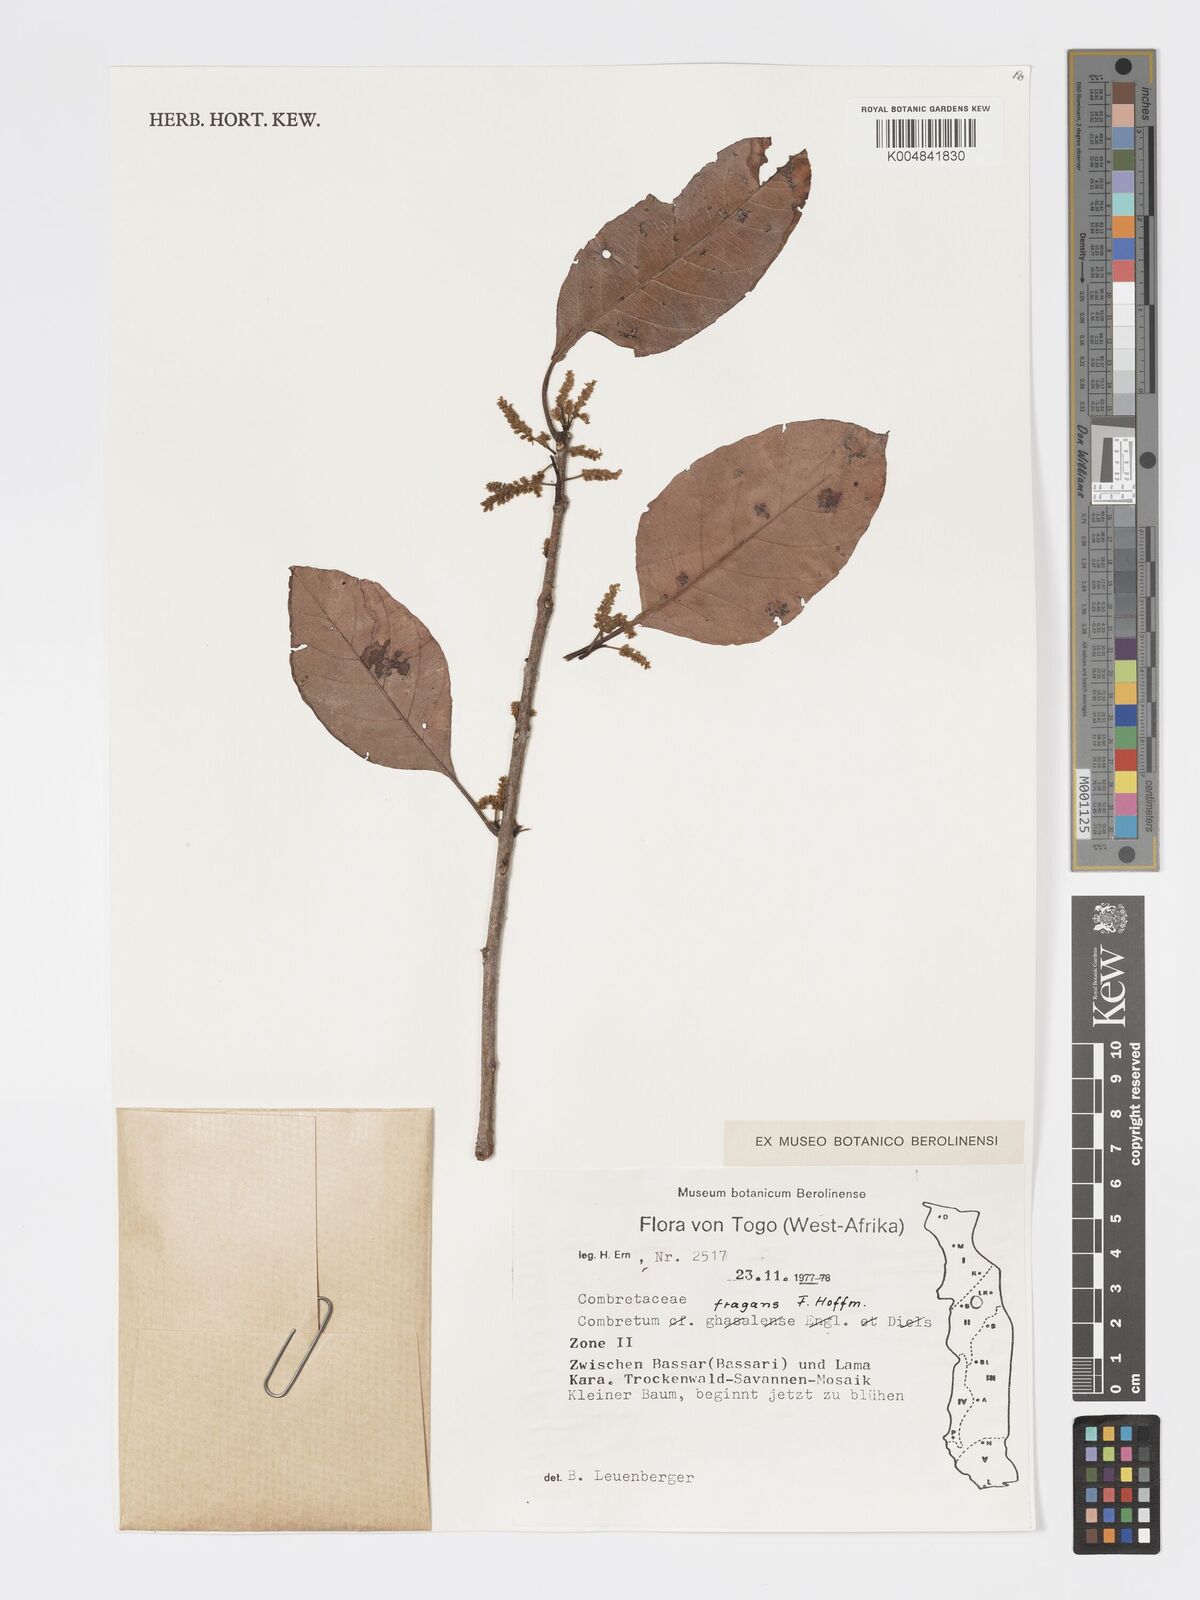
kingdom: Plantae
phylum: Tracheophyta
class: Magnoliopsida
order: Myrtales
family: Combretaceae
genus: Combretum
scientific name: Combretum adenogonium
